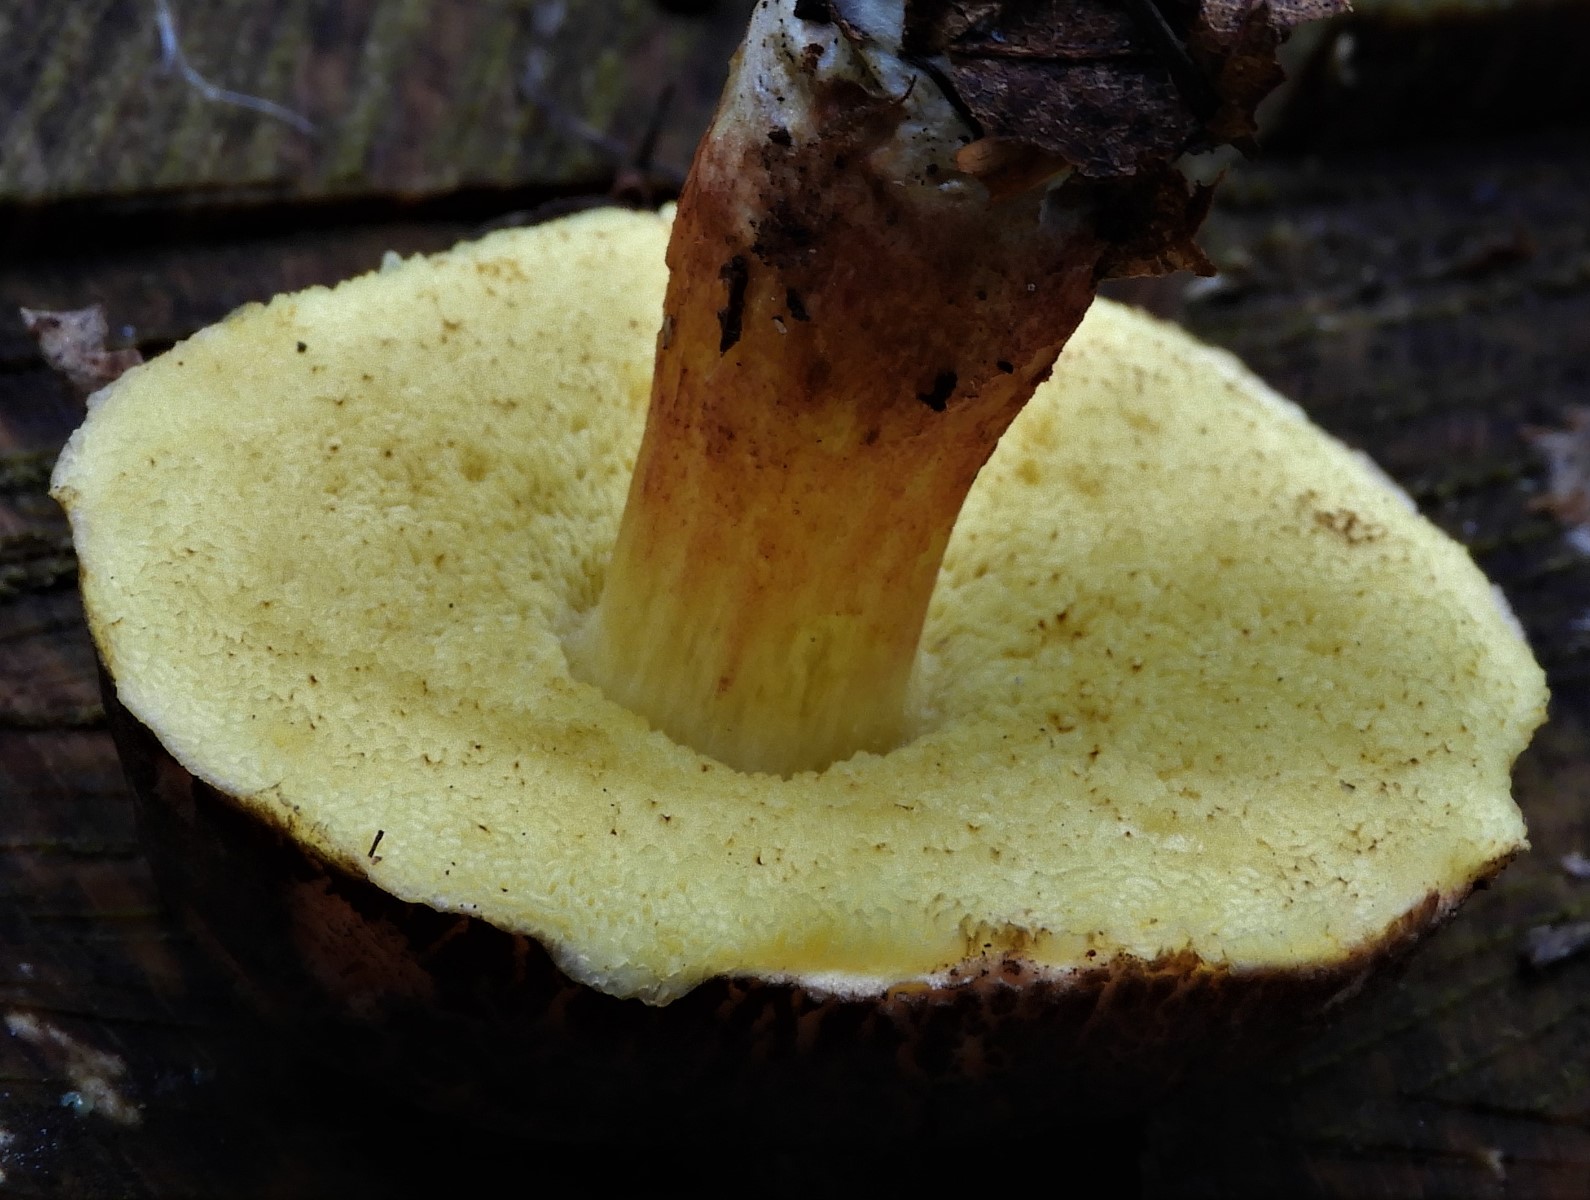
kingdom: Fungi
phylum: Basidiomycota
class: Agaricomycetes
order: Boletales
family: Boletaceae
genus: Xerocomellus
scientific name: Xerocomellus chrysenteron
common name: rødsprukken rørhat
